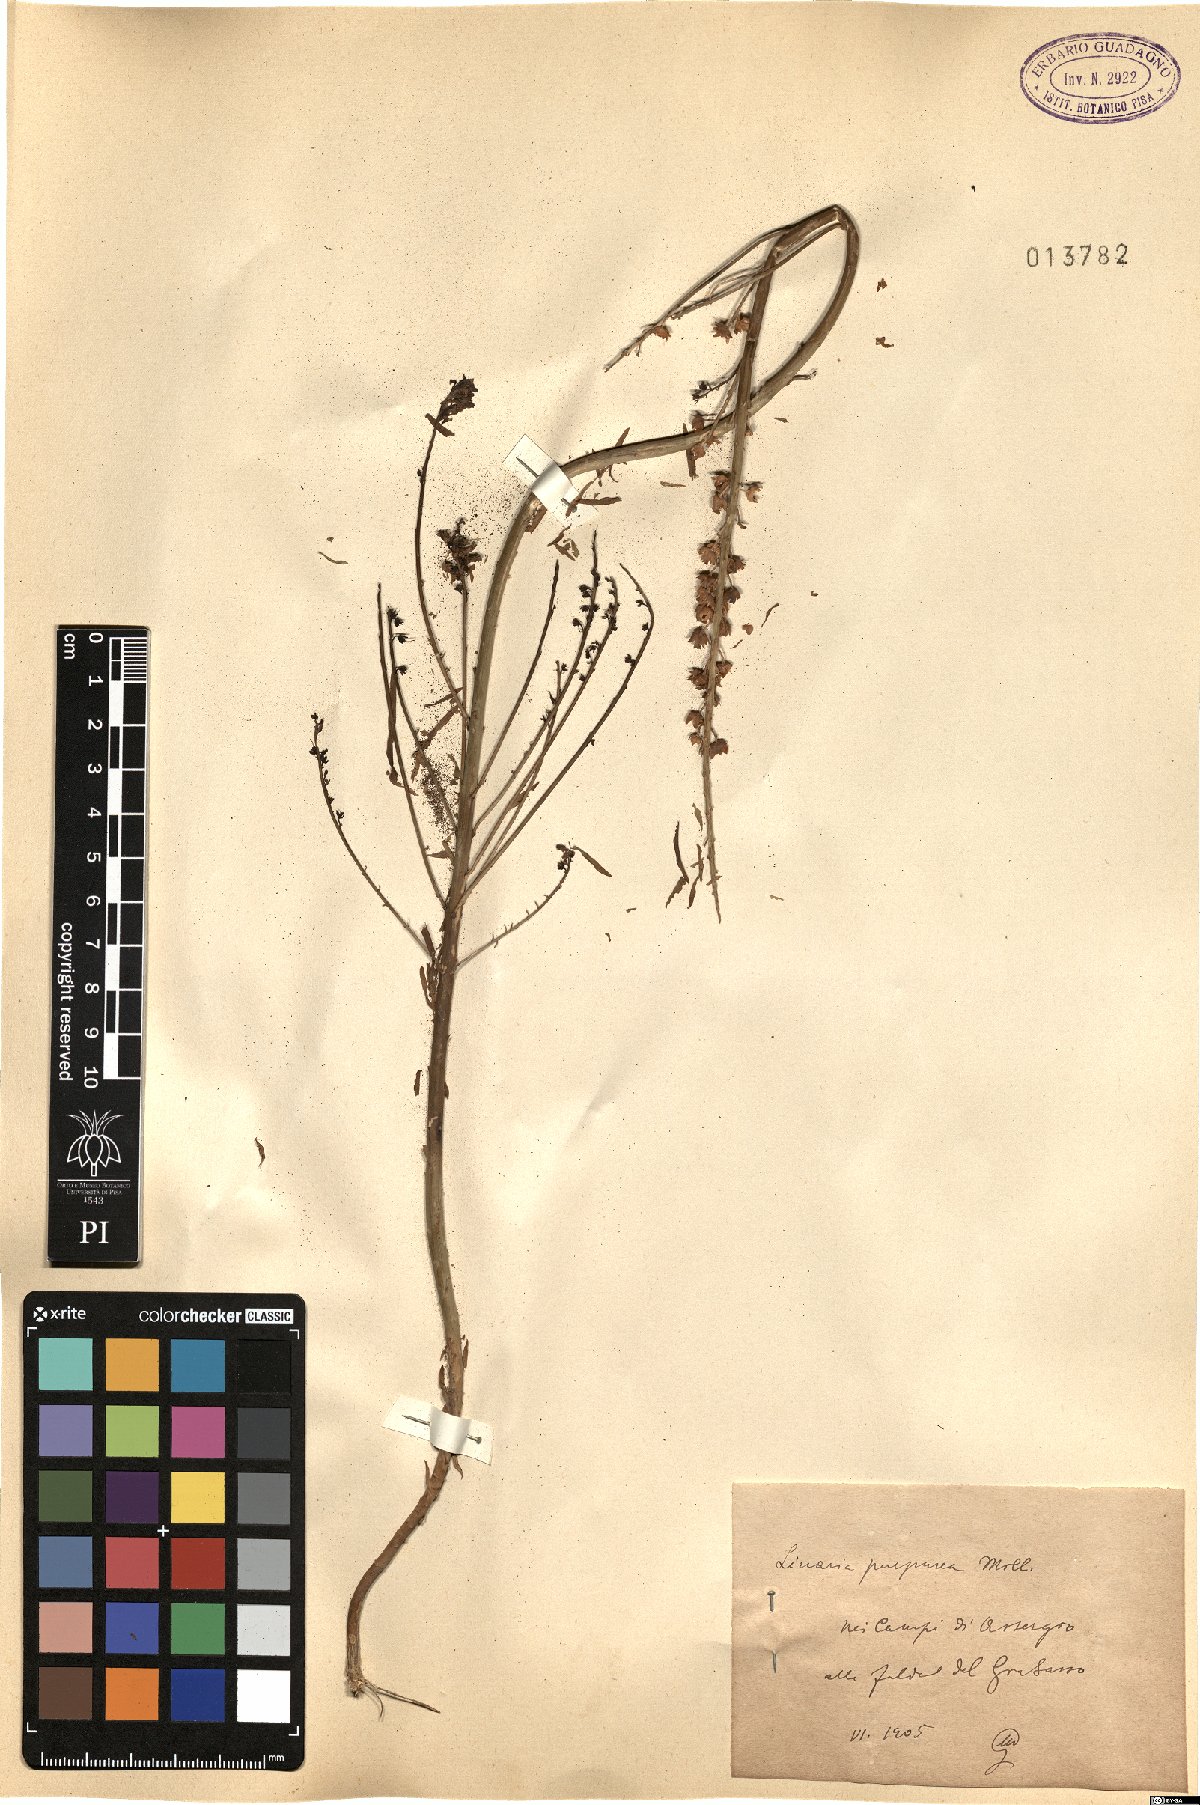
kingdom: Plantae
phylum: Tracheophyta
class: Magnoliopsida
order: Lamiales
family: Plantaginaceae
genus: Linaria
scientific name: Linaria purpurea
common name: Purple toadflax
